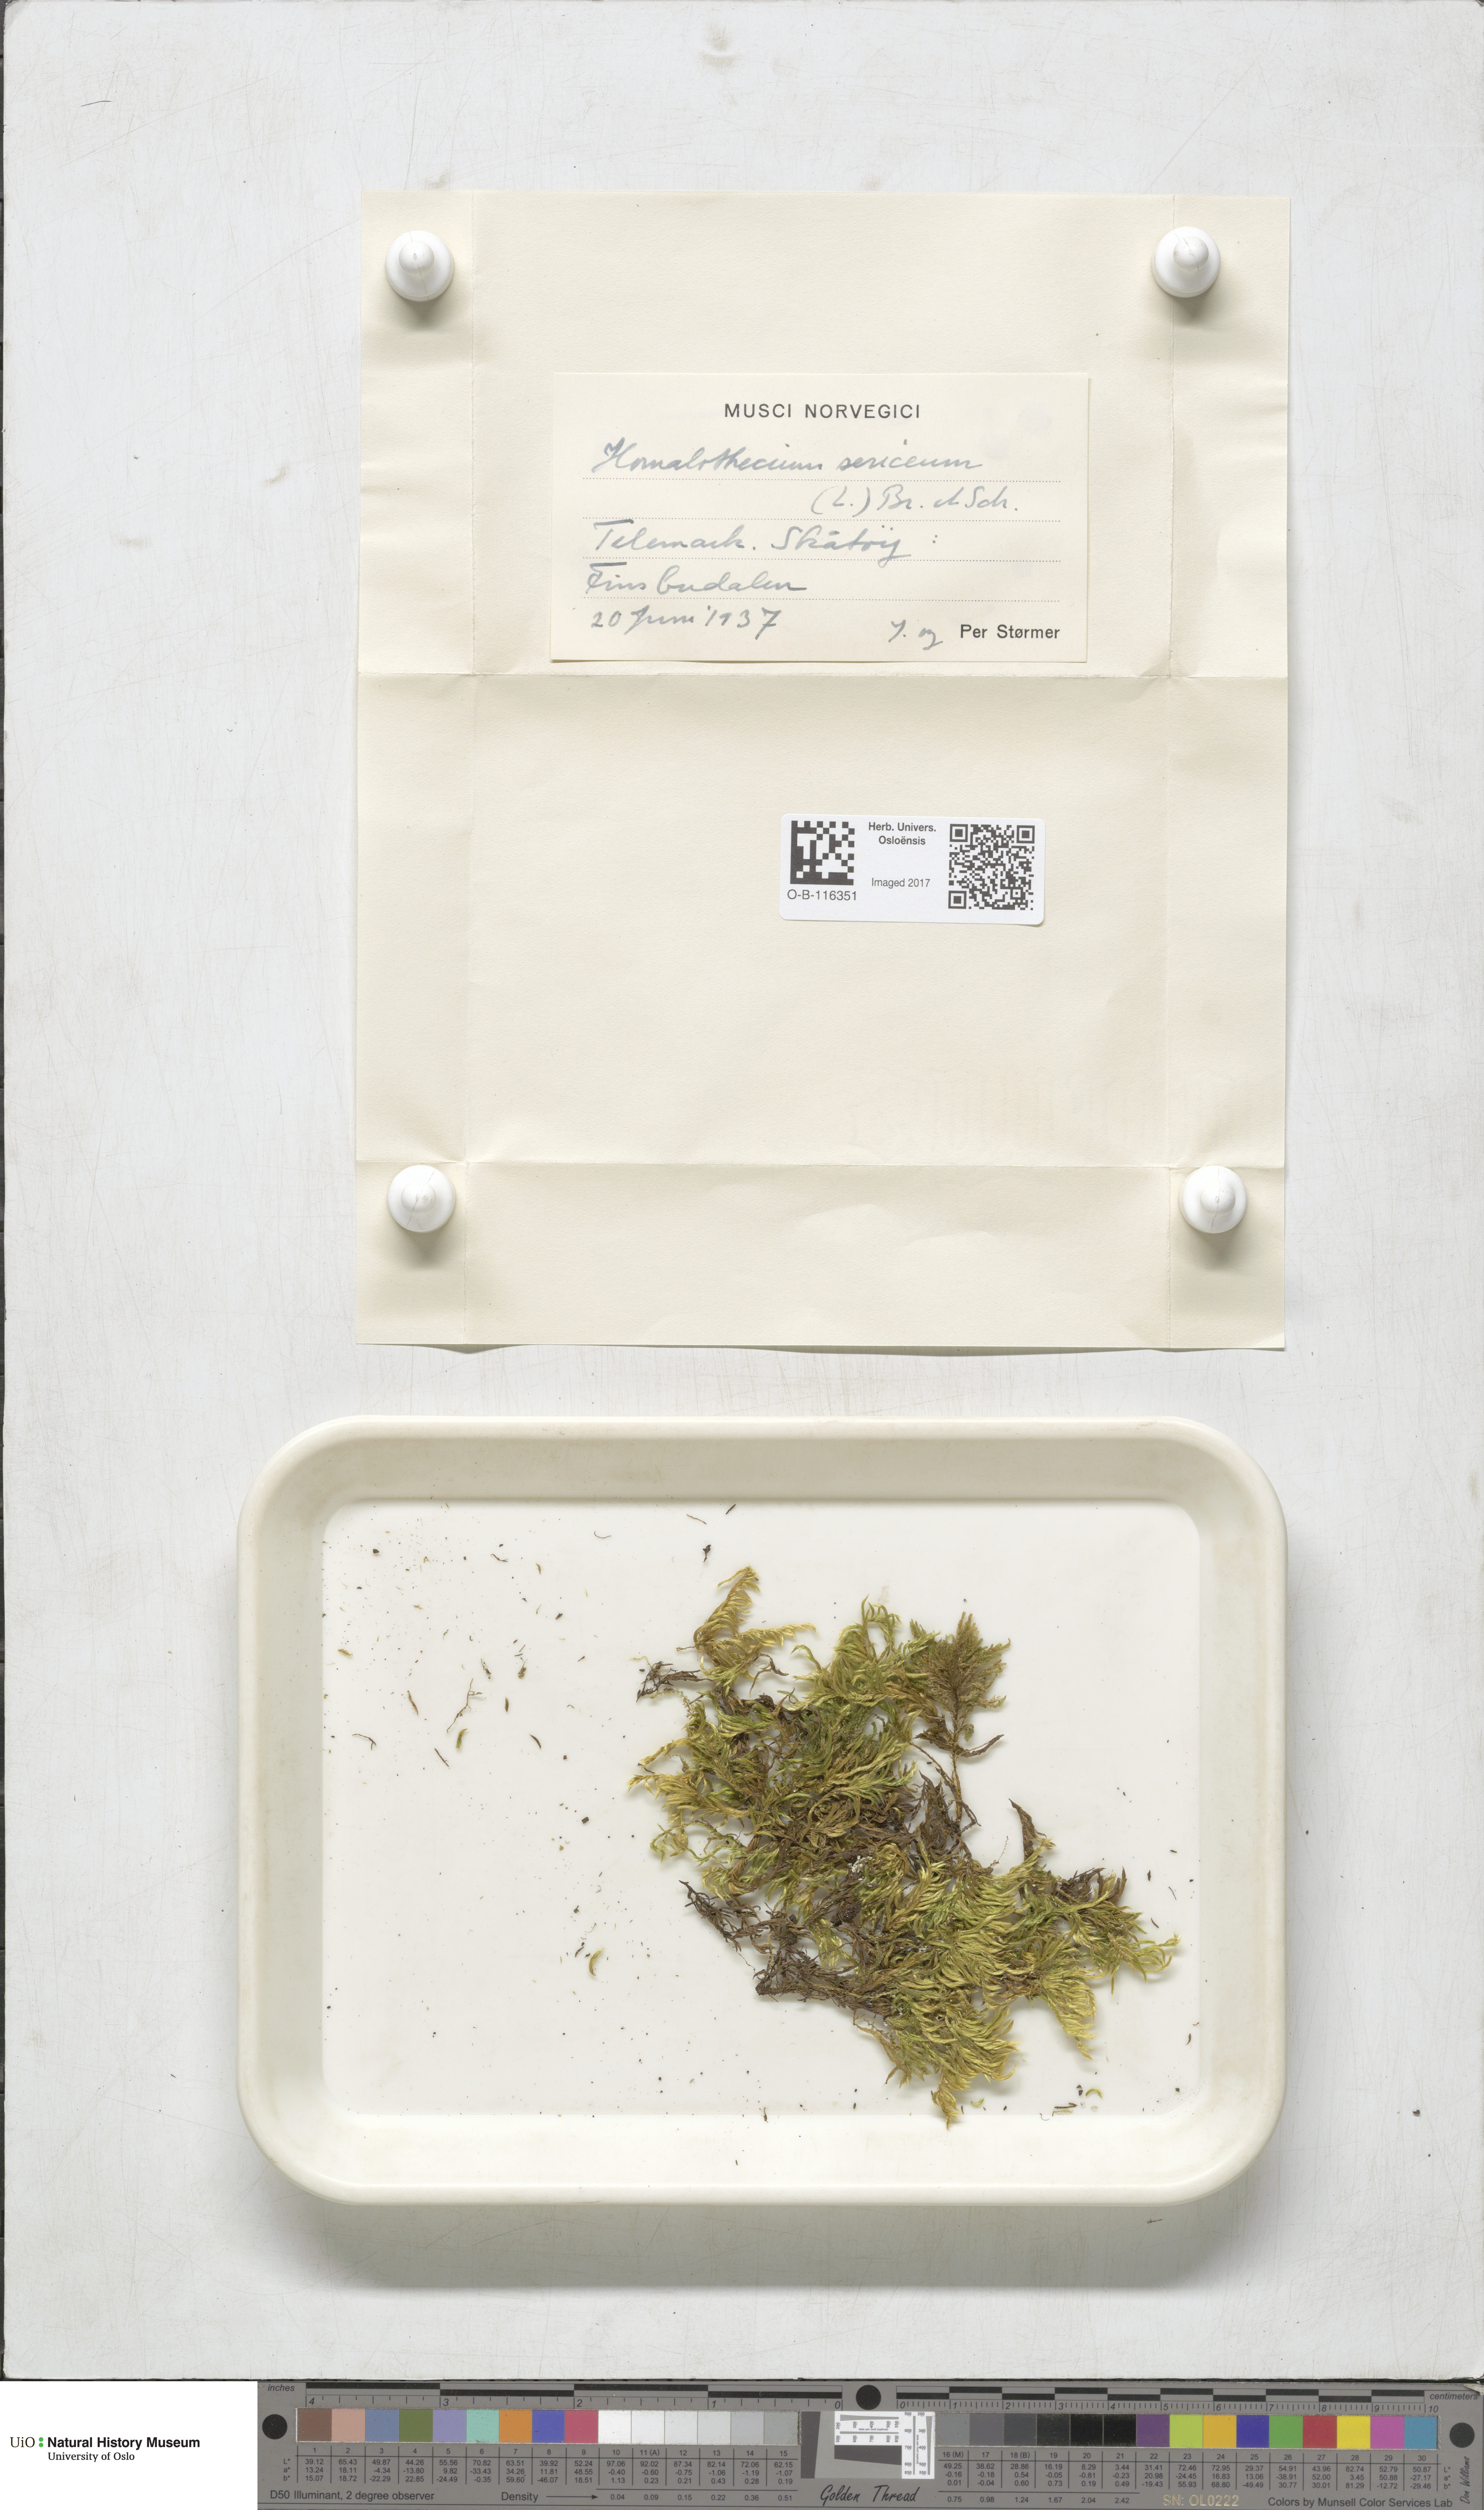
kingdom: Plantae
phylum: Bryophyta
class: Bryopsida
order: Hypnales
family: Brachytheciaceae
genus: Homalothecium
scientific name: Homalothecium sericeum
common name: Silky wall feather-moss
